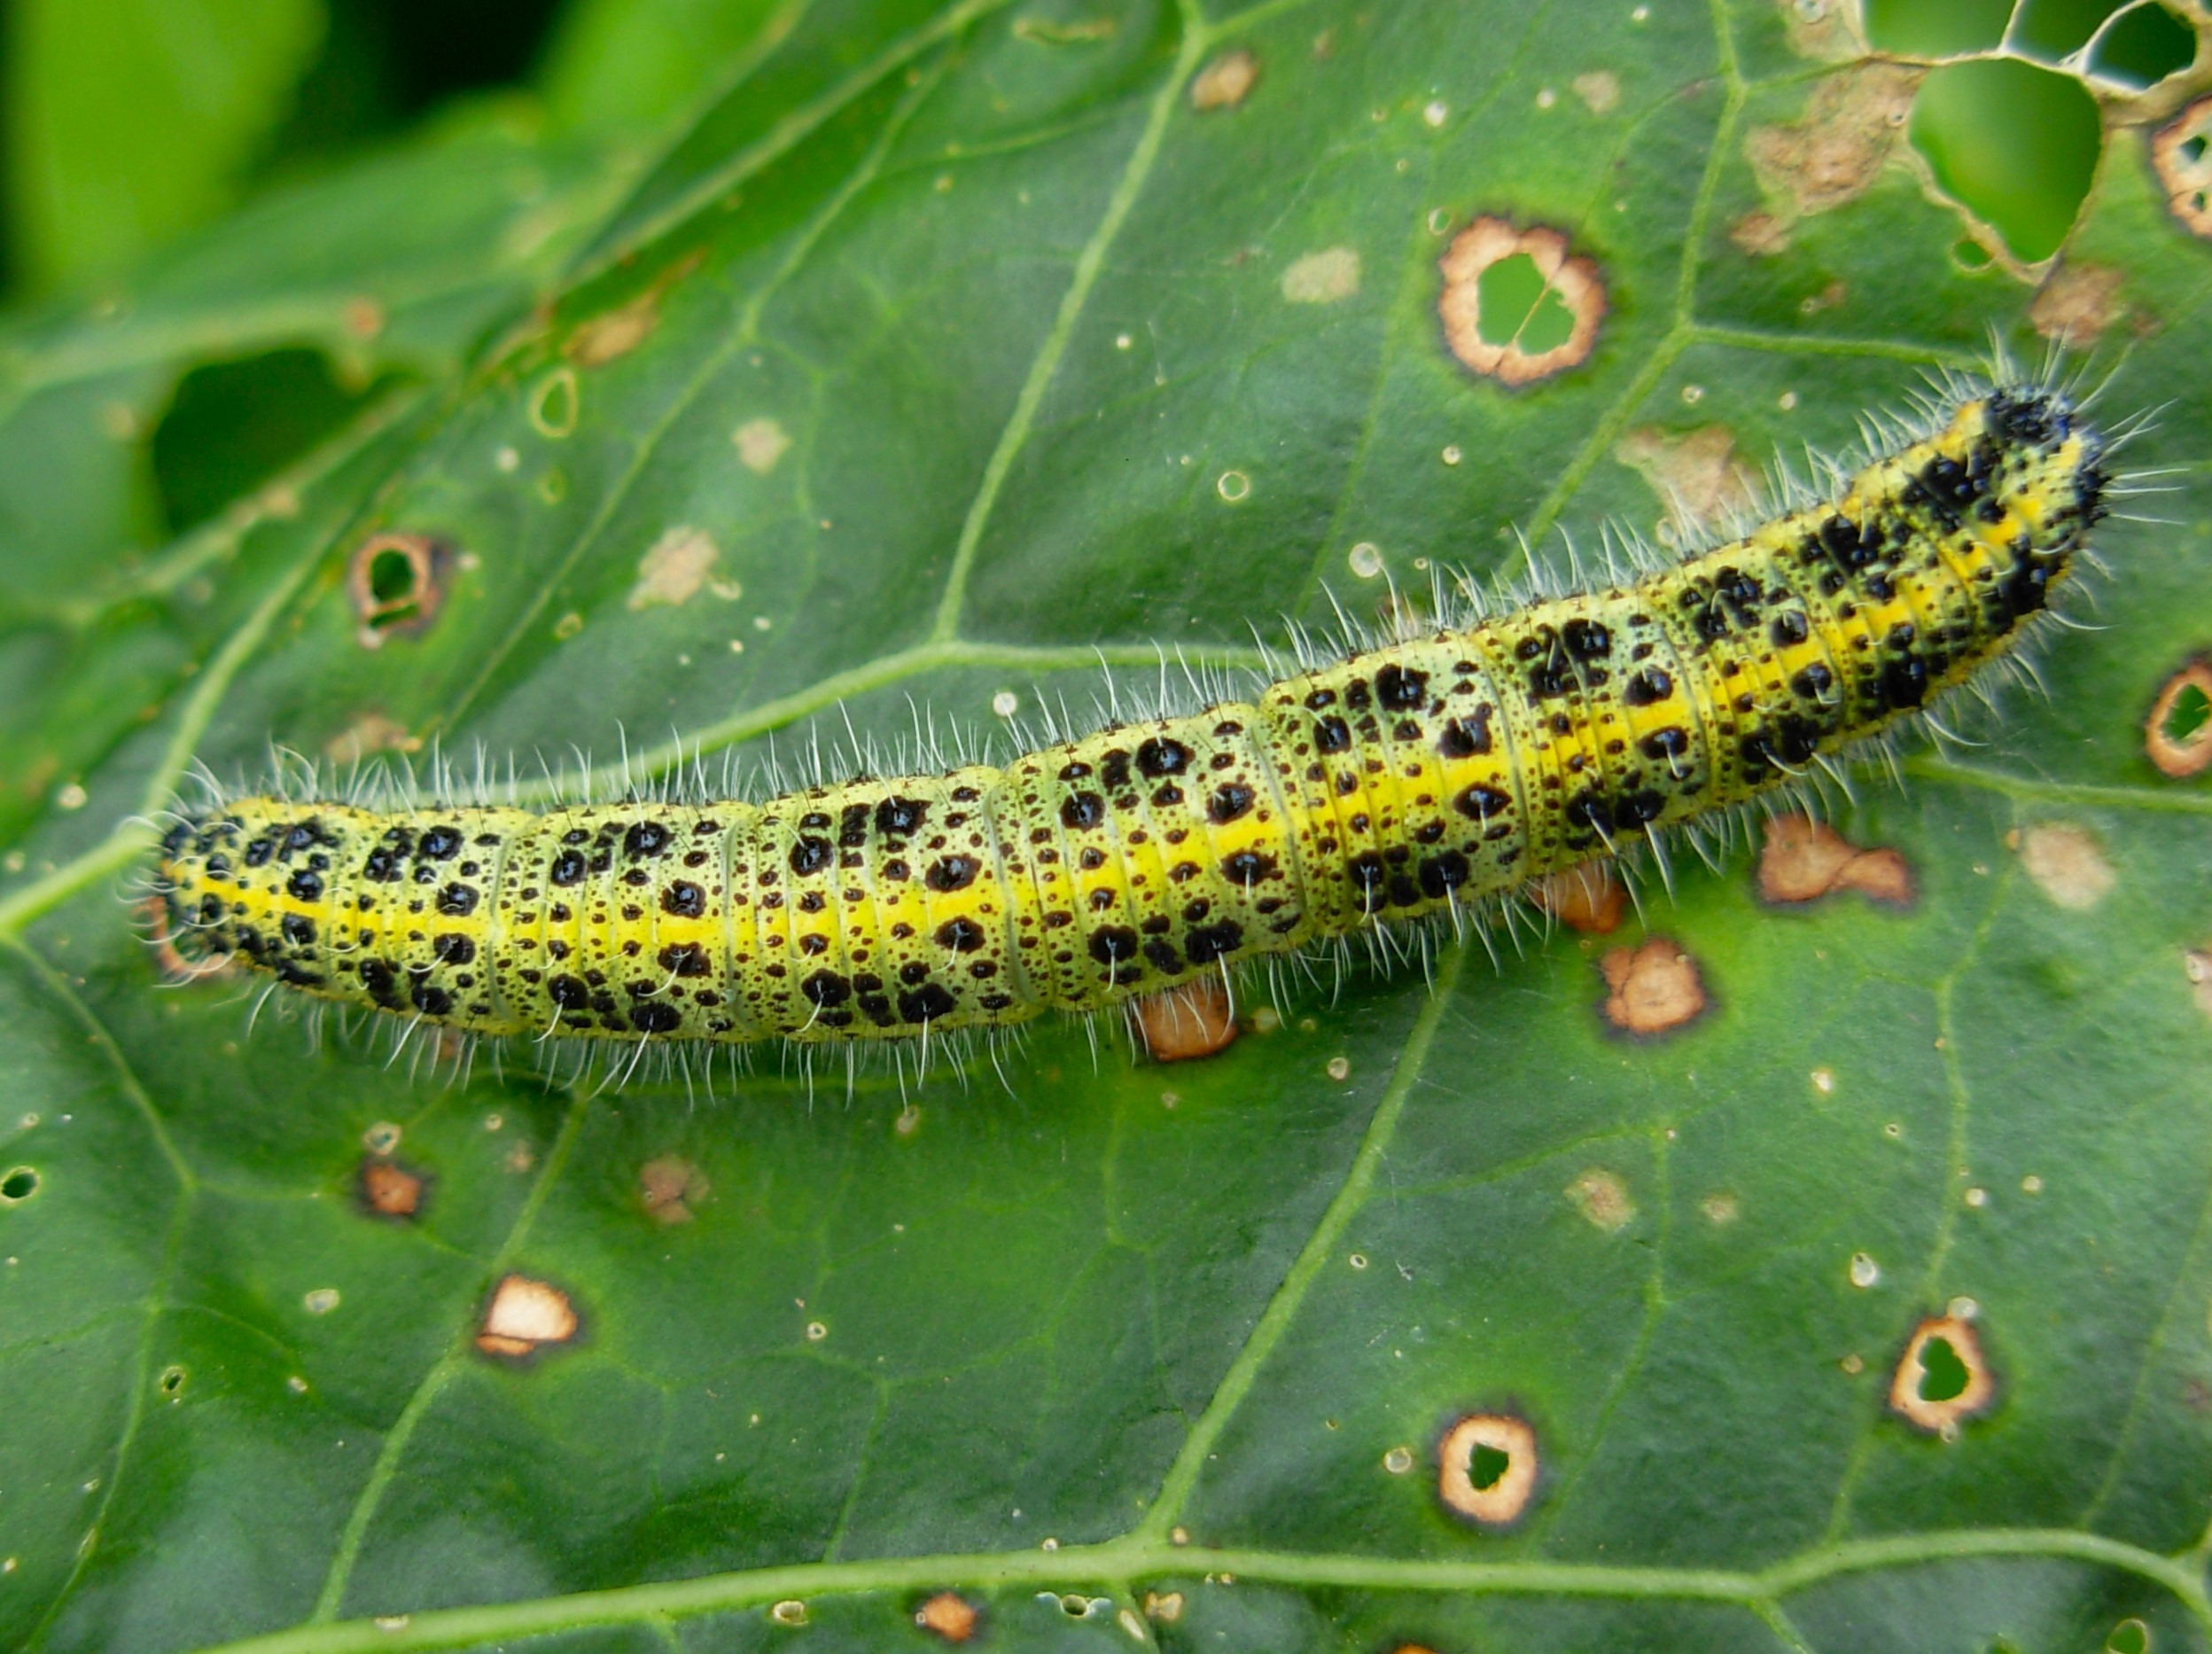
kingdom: Animalia
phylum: Arthropoda
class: Insecta
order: Lepidoptera
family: Pieridae
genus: Pieris
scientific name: Pieris brassicae
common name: Stor kålsommerfugl
